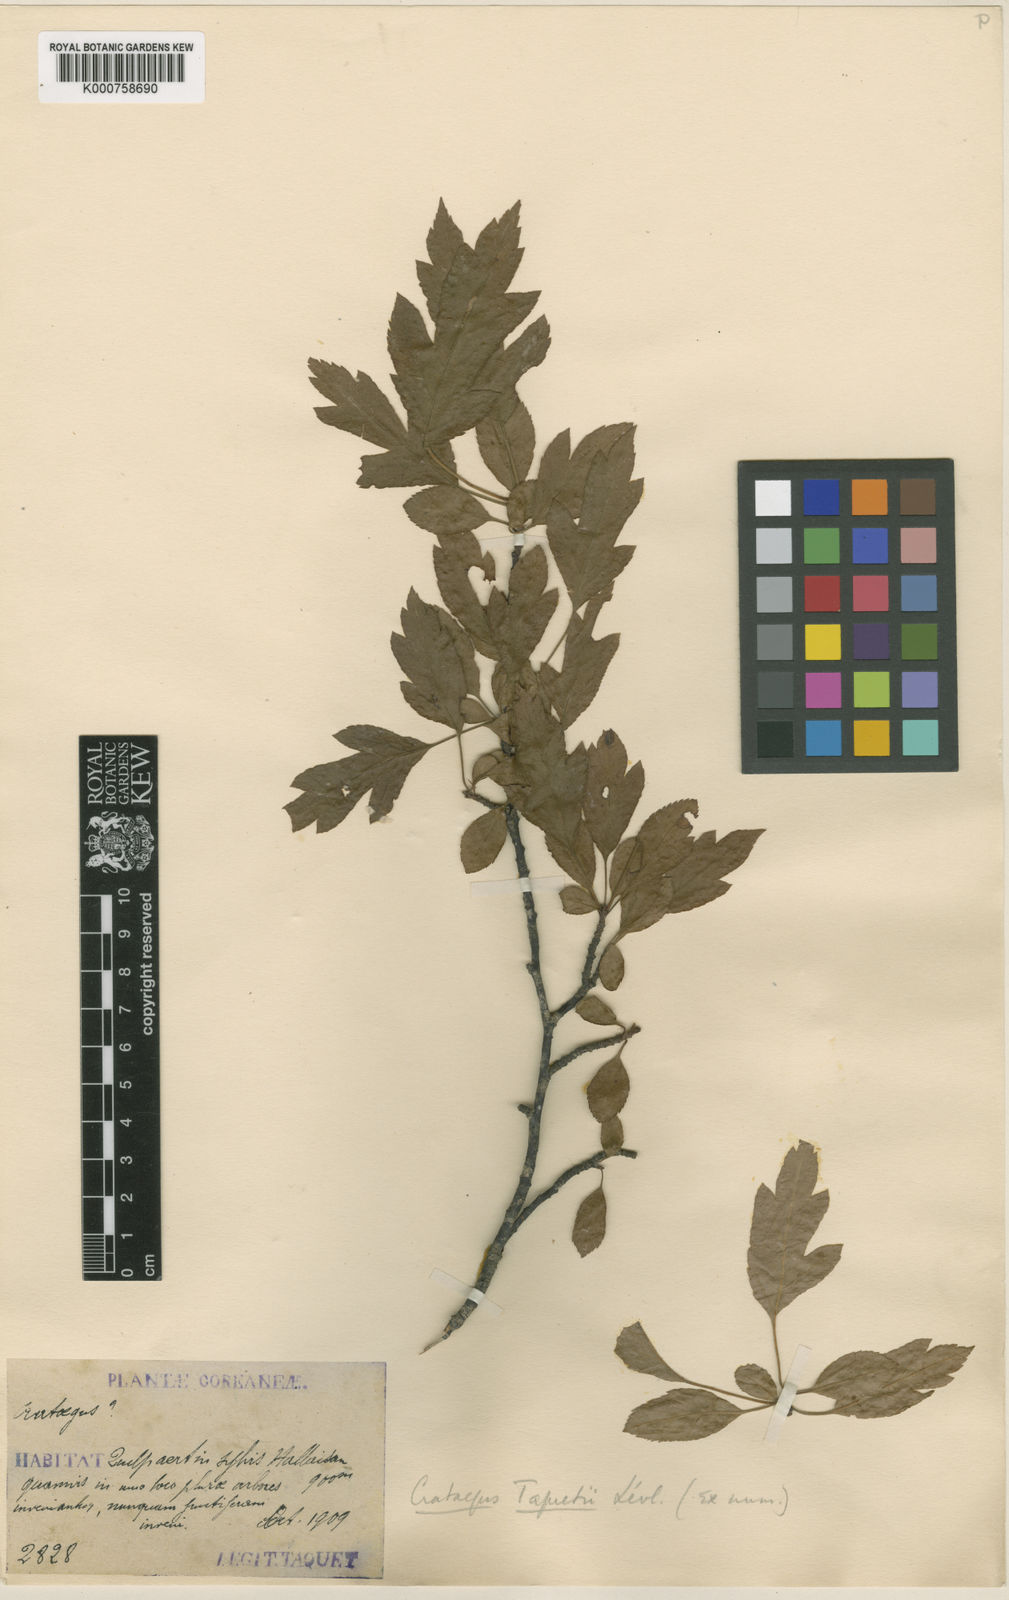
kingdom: Plantae
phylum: Tracheophyta
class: Magnoliopsida
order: Rosales
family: Rosaceae
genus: Crataegus
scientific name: Crataegus
